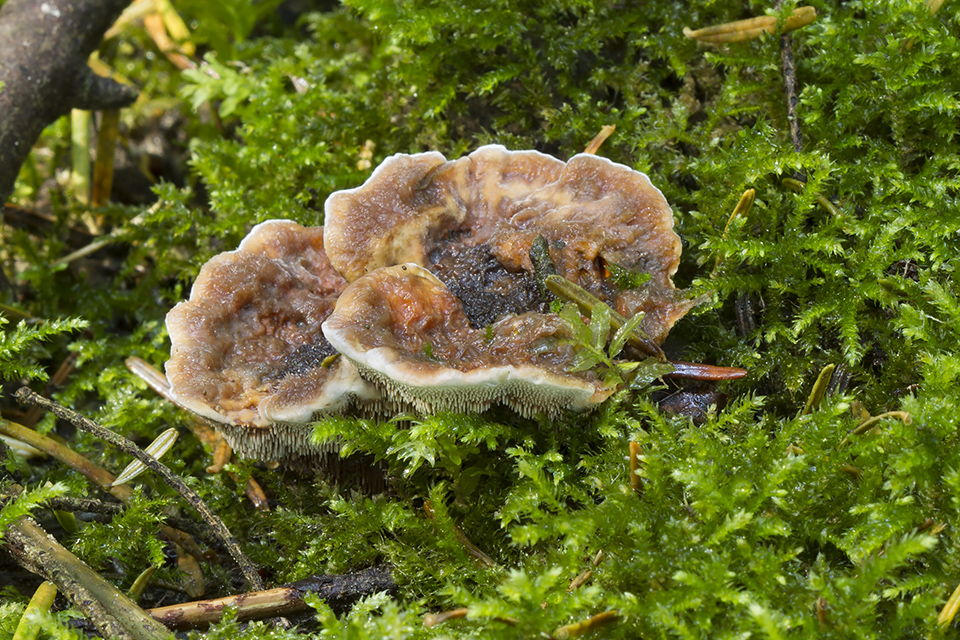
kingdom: Fungi
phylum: Basidiomycota
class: Agaricomycetes
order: Thelephorales
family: Bankeraceae
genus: Hydnellum
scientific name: Hydnellum aurantiacum
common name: orange korkpigsvamp
